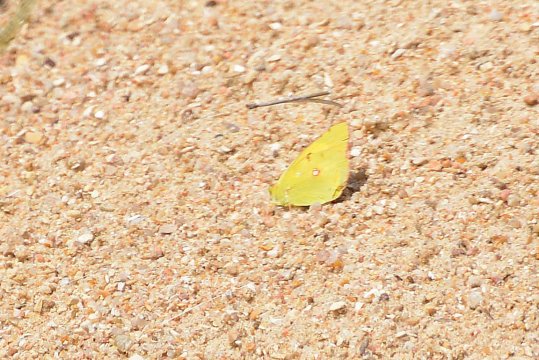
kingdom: Animalia
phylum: Arthropoda
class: Insecta
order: Lepidoptera
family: Pieridae
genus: Colias
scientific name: Colias croceus
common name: Clouded Yellow
